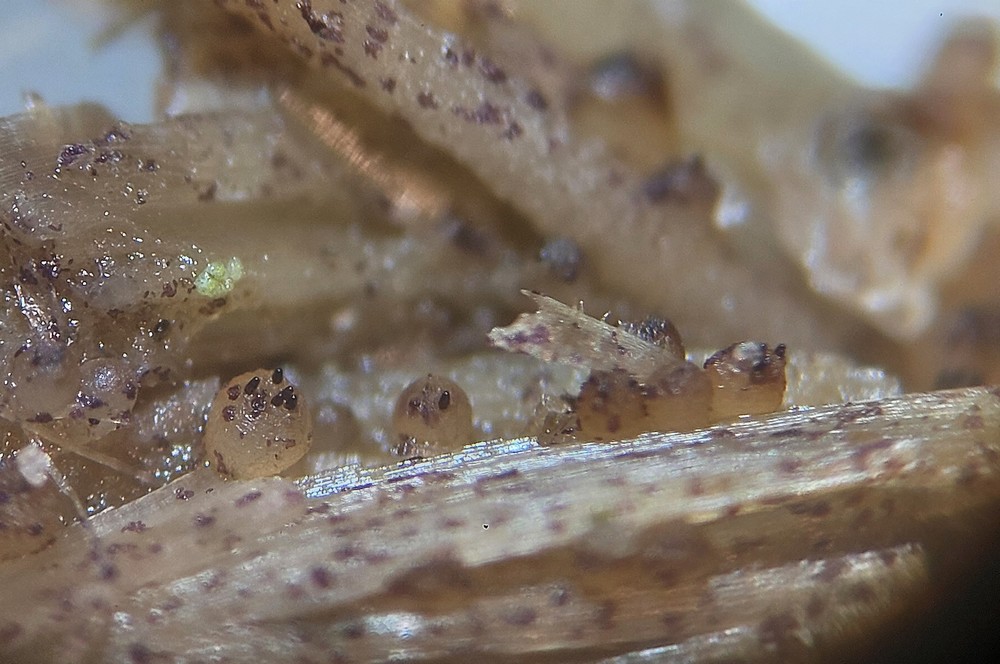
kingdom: Fungi
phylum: Ascomycota
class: Pezizomycetes
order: Pezizales
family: Ascobolaceae
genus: Ascobolus
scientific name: Ascobolus albidus
